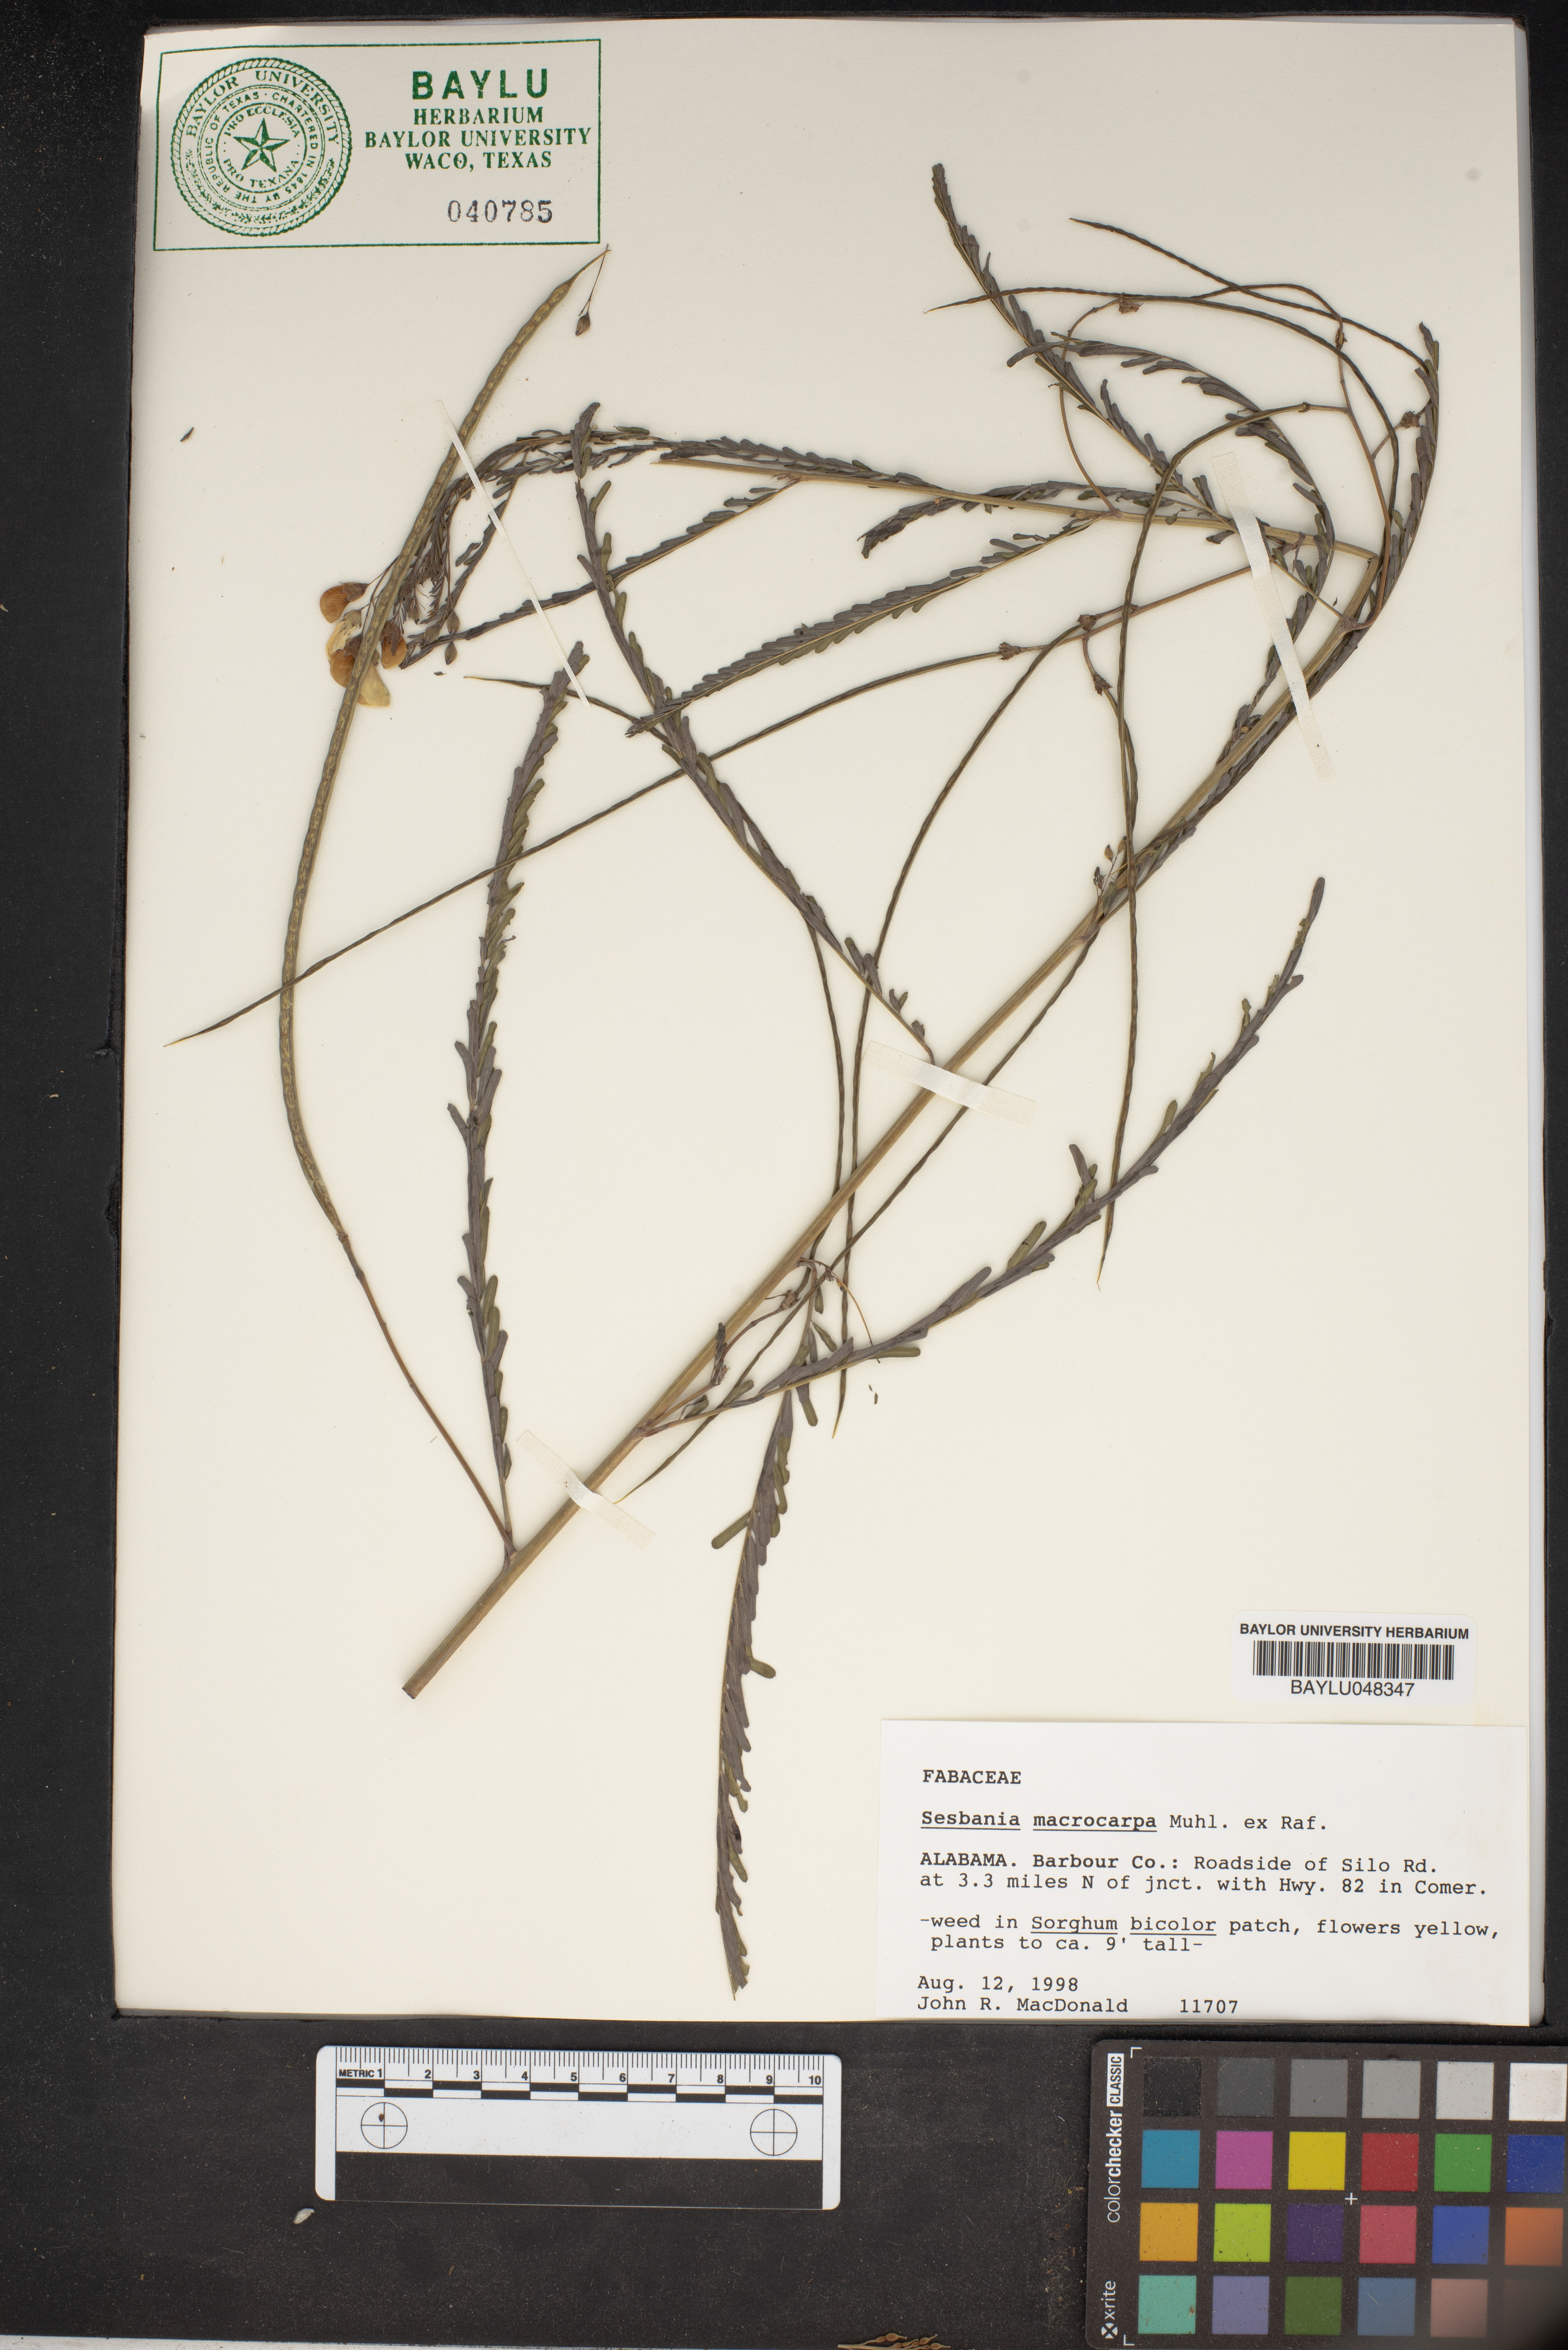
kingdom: Plantae
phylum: Tracheophyta
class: Magnoliopsida
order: Fabales
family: Fabaceae
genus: Sesbania
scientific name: Sesbania vesicaria
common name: Bagpod
